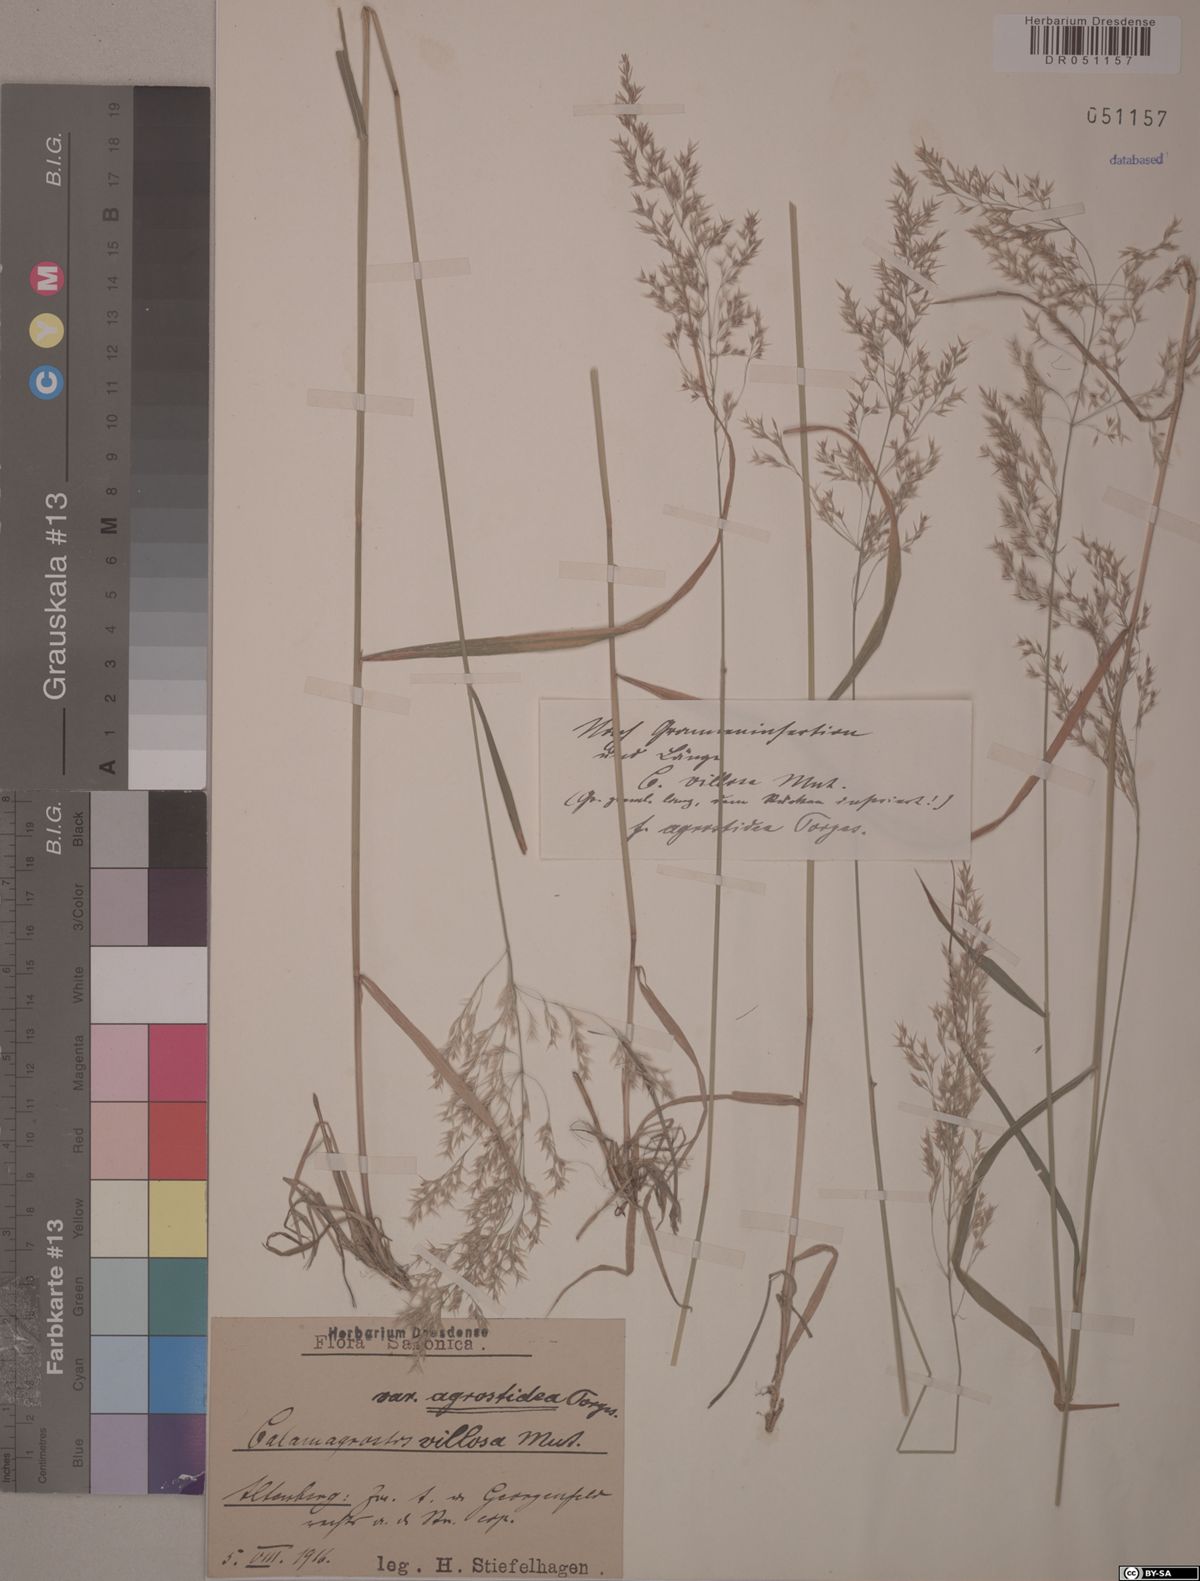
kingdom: Plantae
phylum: Tracheophyta
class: Liliopsida
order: Poales
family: Poaceae
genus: Calamagrostis
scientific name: Calamagrostis villosa
